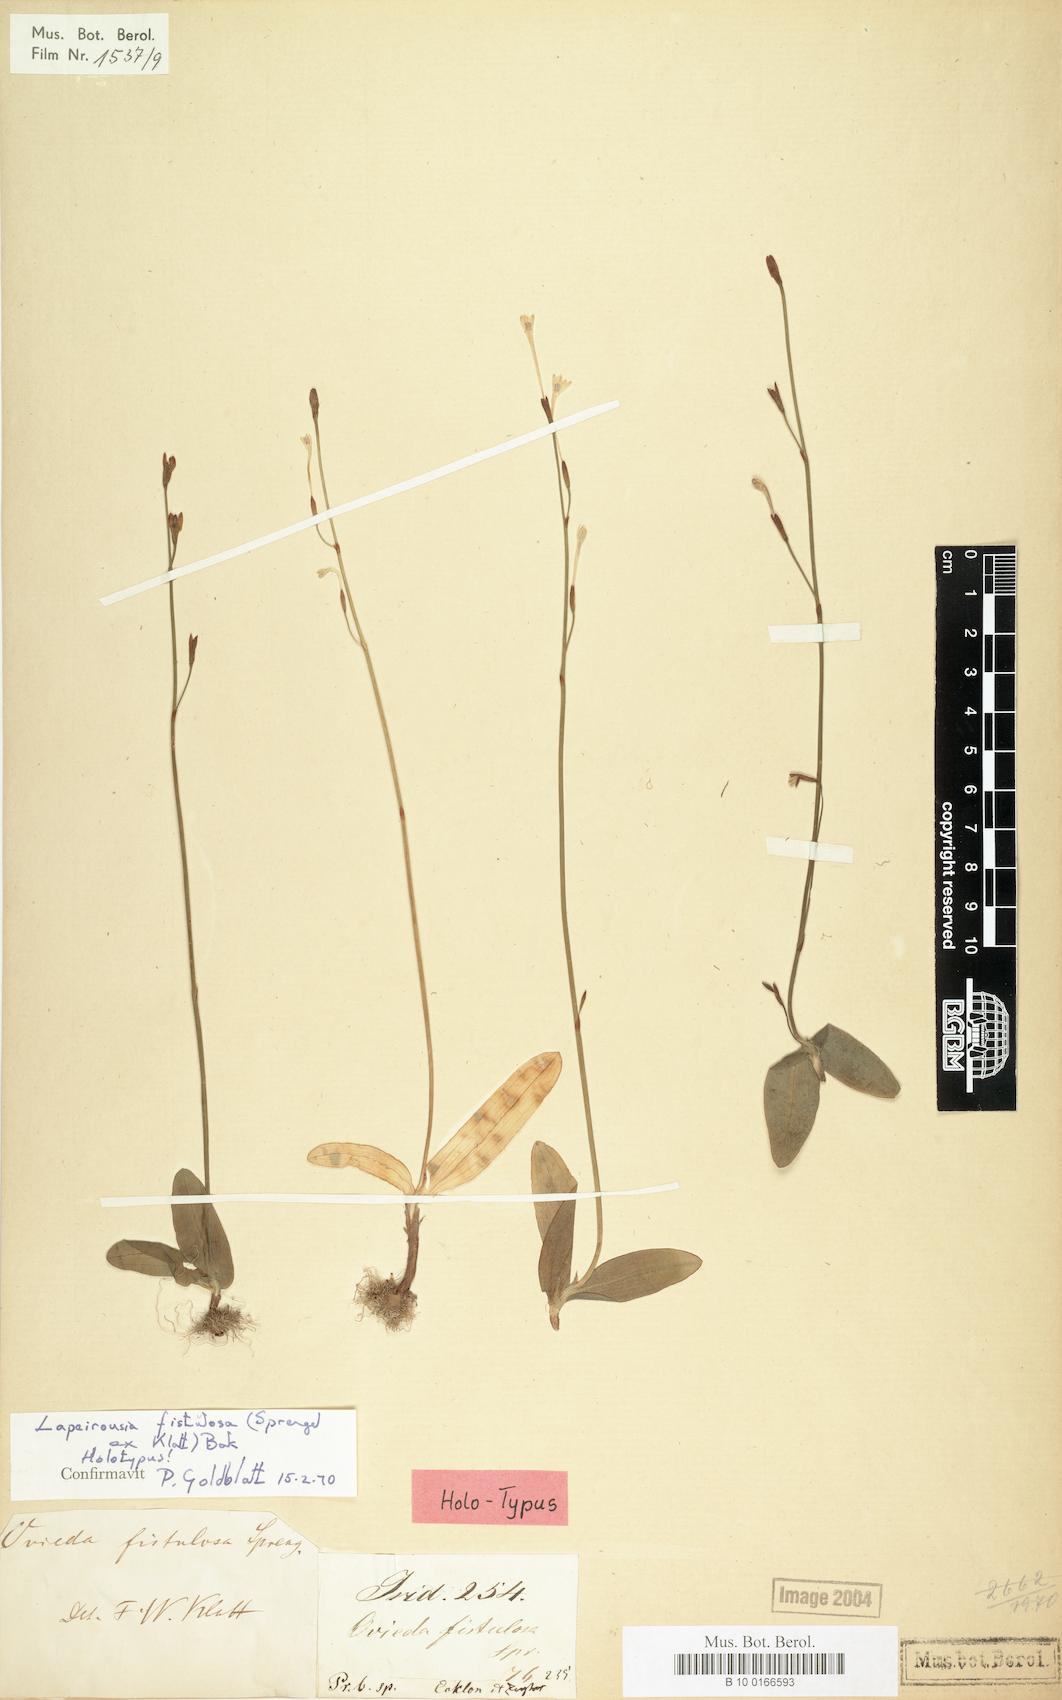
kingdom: Plantae
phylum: Tracheophyta
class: Liliopsida
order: Asparagales
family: Iridaceae
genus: Xenoscapa
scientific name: Xenoscapa fistulosa
